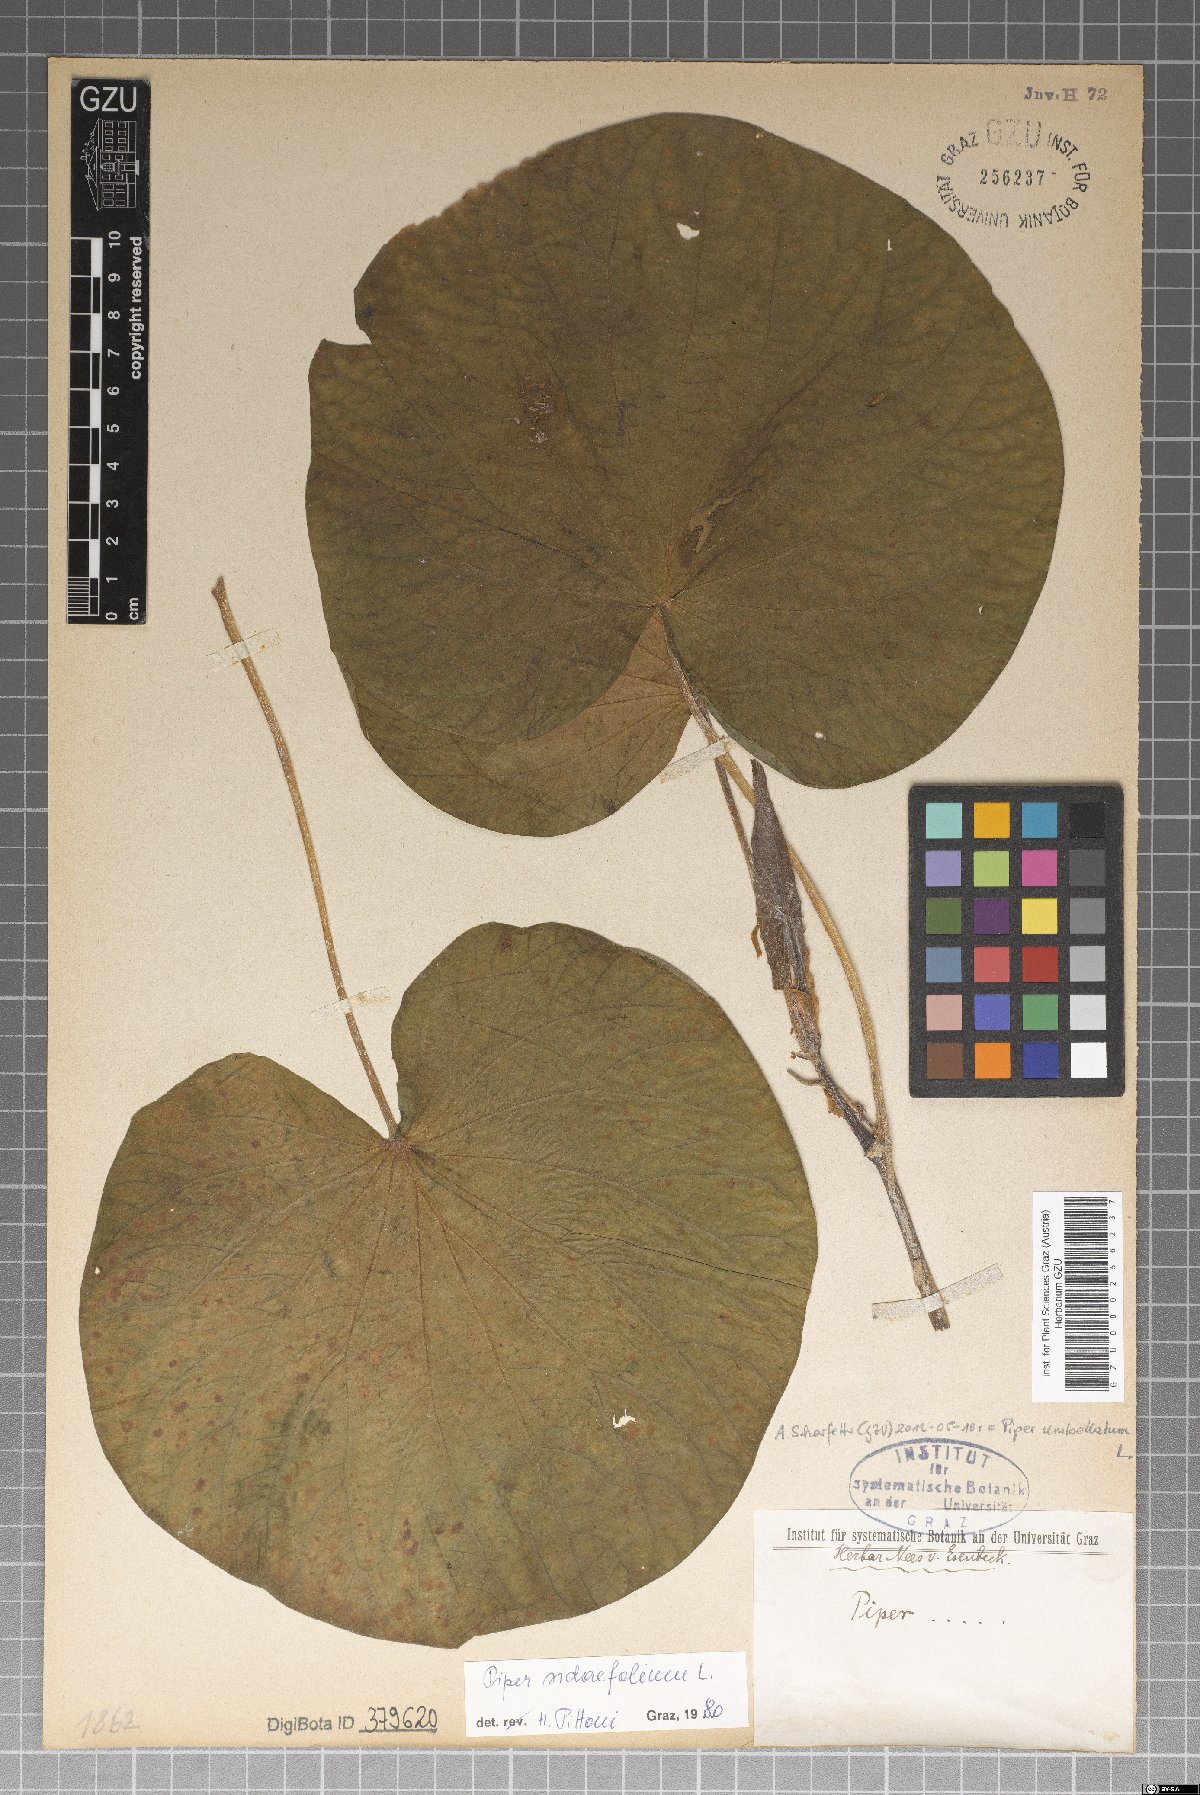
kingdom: Plantae
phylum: Tracheophyta
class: Magnoliopsida
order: Piperales
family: Piperaceae
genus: Piper
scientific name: Piper umbellatum
